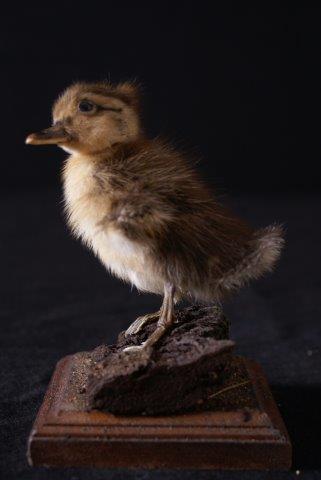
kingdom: Animalia
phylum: Chordata
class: Aves
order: Anseriformes
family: Anatidae
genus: Anas
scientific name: Anas platyrhynchos
